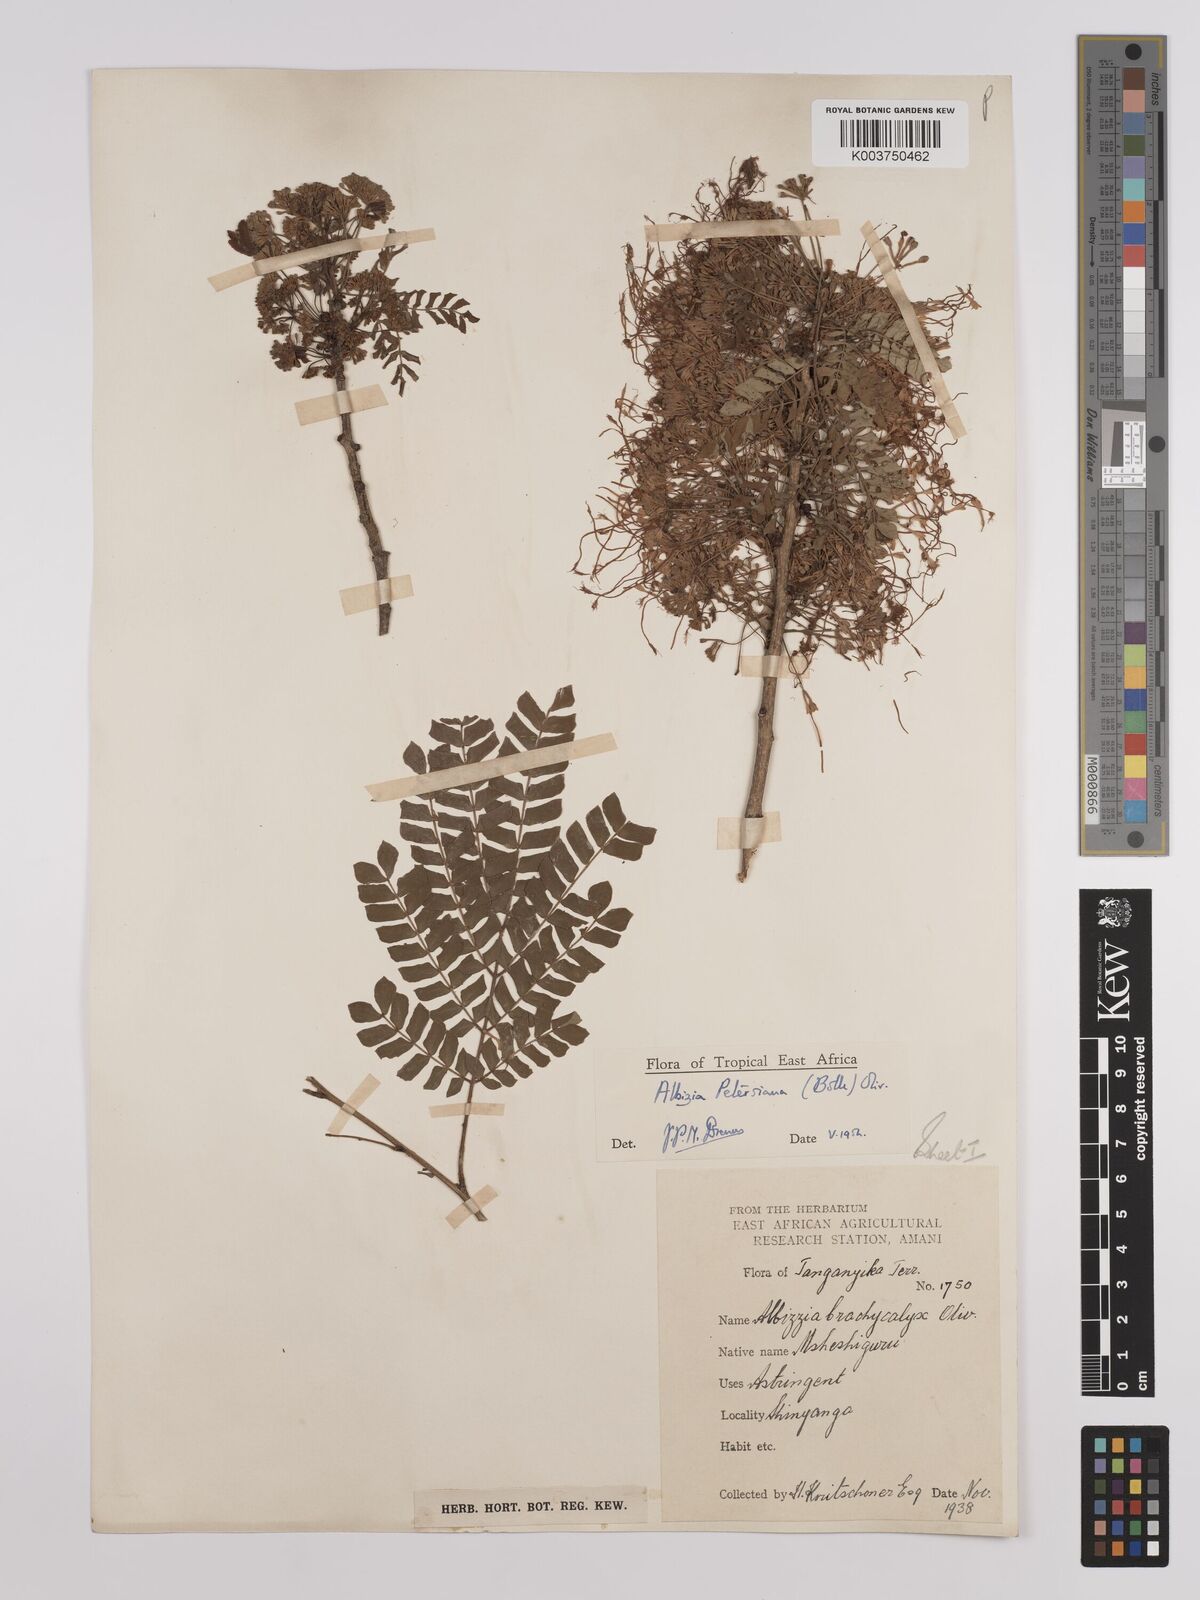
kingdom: Plantae
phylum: Tracheophyta
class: Magnoliopsida
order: Fabales
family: Fabaceae
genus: Albizia
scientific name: Albizia petersiana
